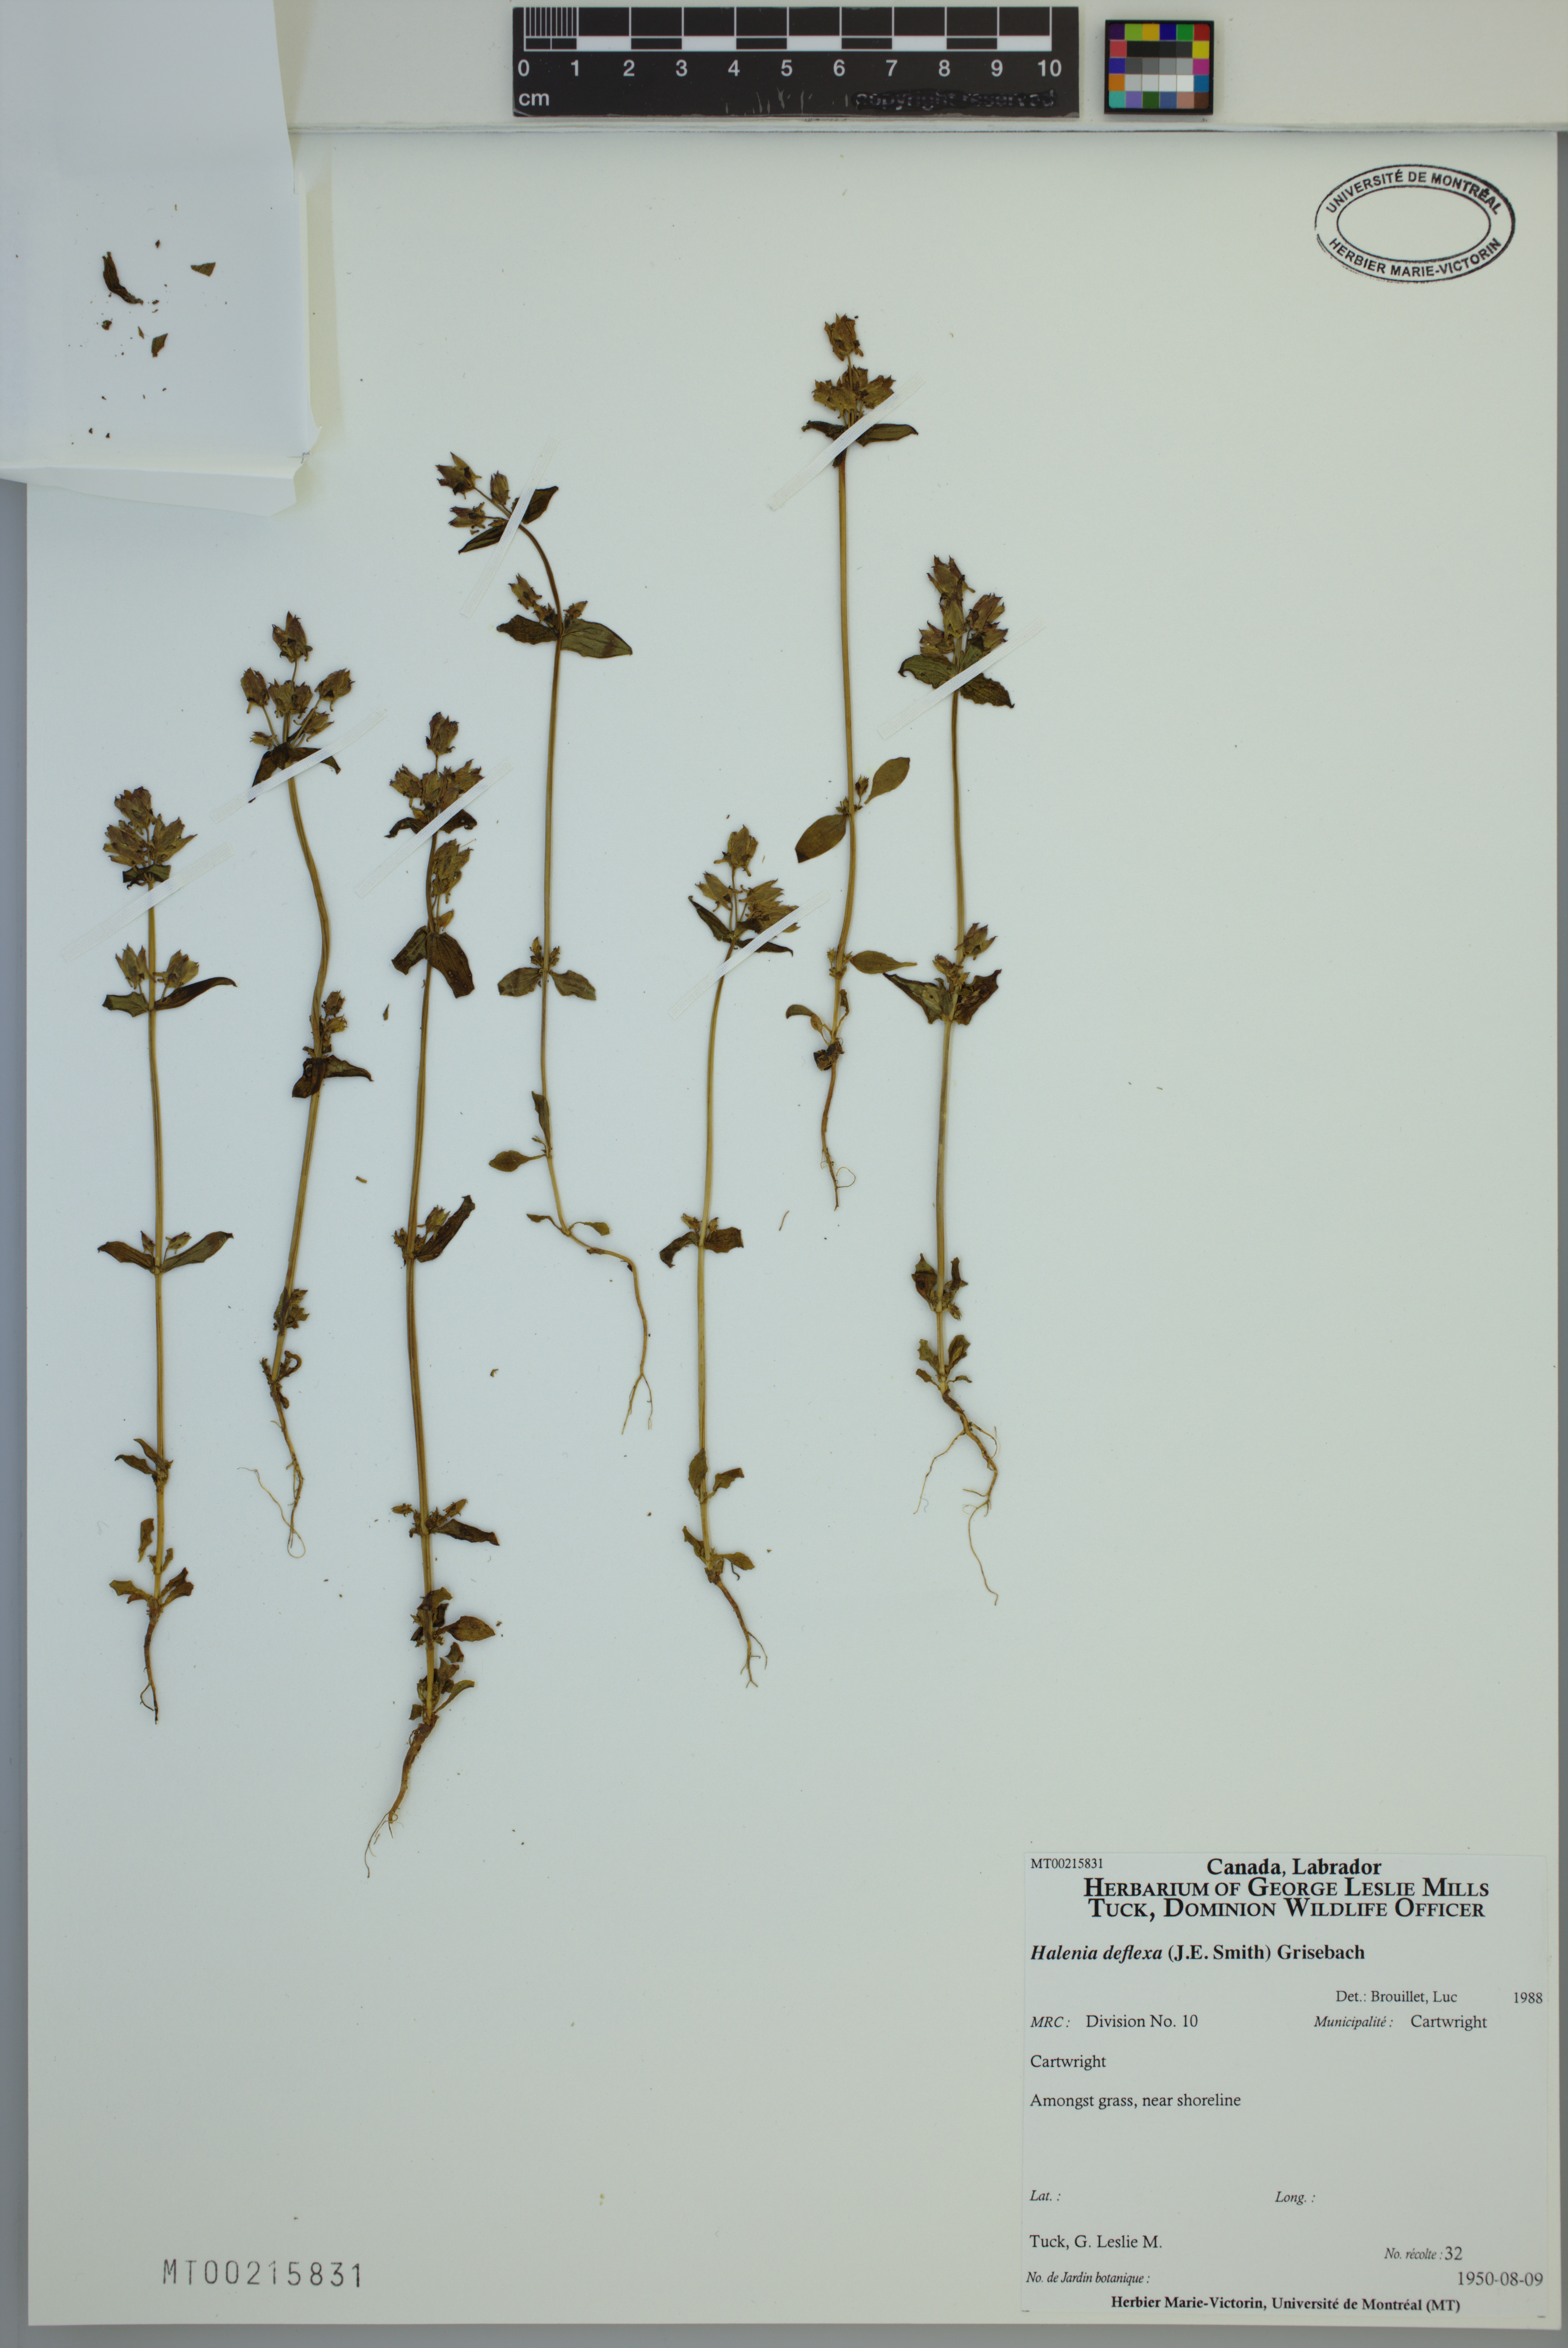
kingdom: Plantae
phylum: Tracheophyta
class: Magnoliopsida
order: Gentianales
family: Gentianaceae
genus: Halenia
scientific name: Halenia deflexa
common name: American spurred gentian
